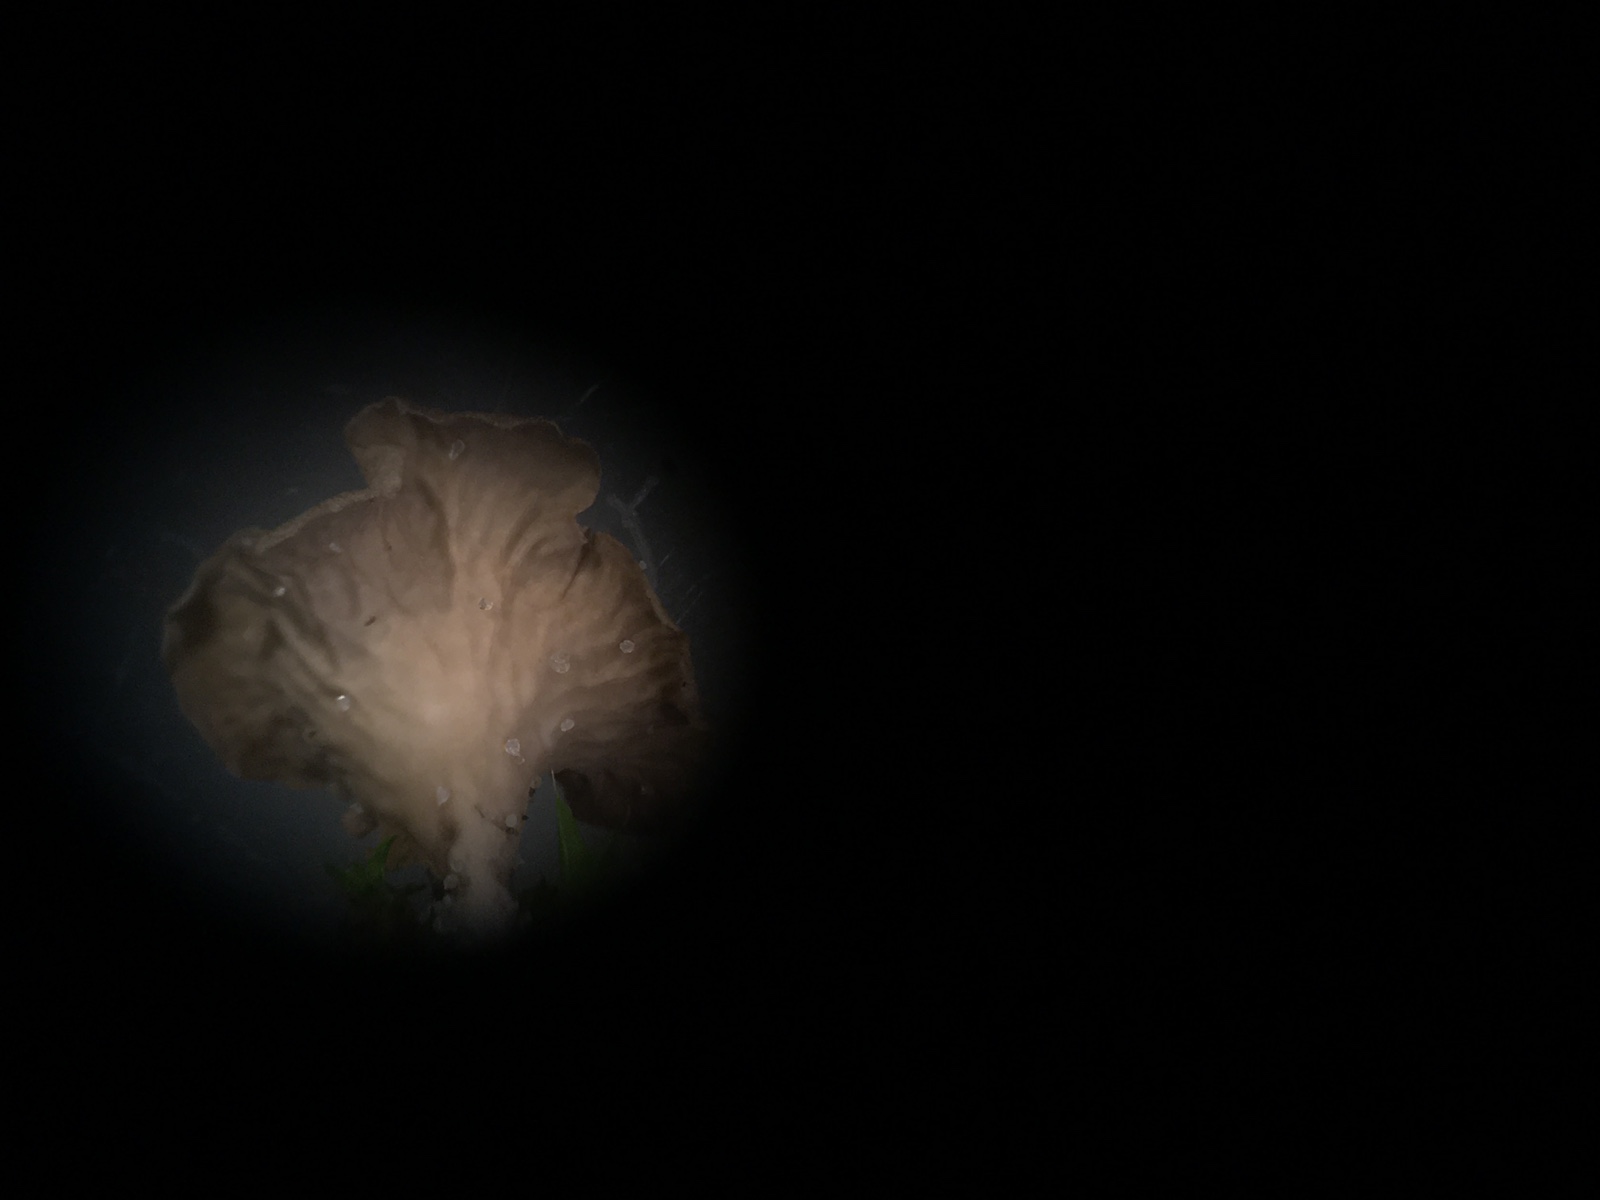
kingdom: Fungi
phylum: Basidiomycota
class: Agaricomycetes
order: Agaricales
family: Hygrophoraceae
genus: Arrhenia
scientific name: Arrhenia spathulata
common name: skæv fontænehat
